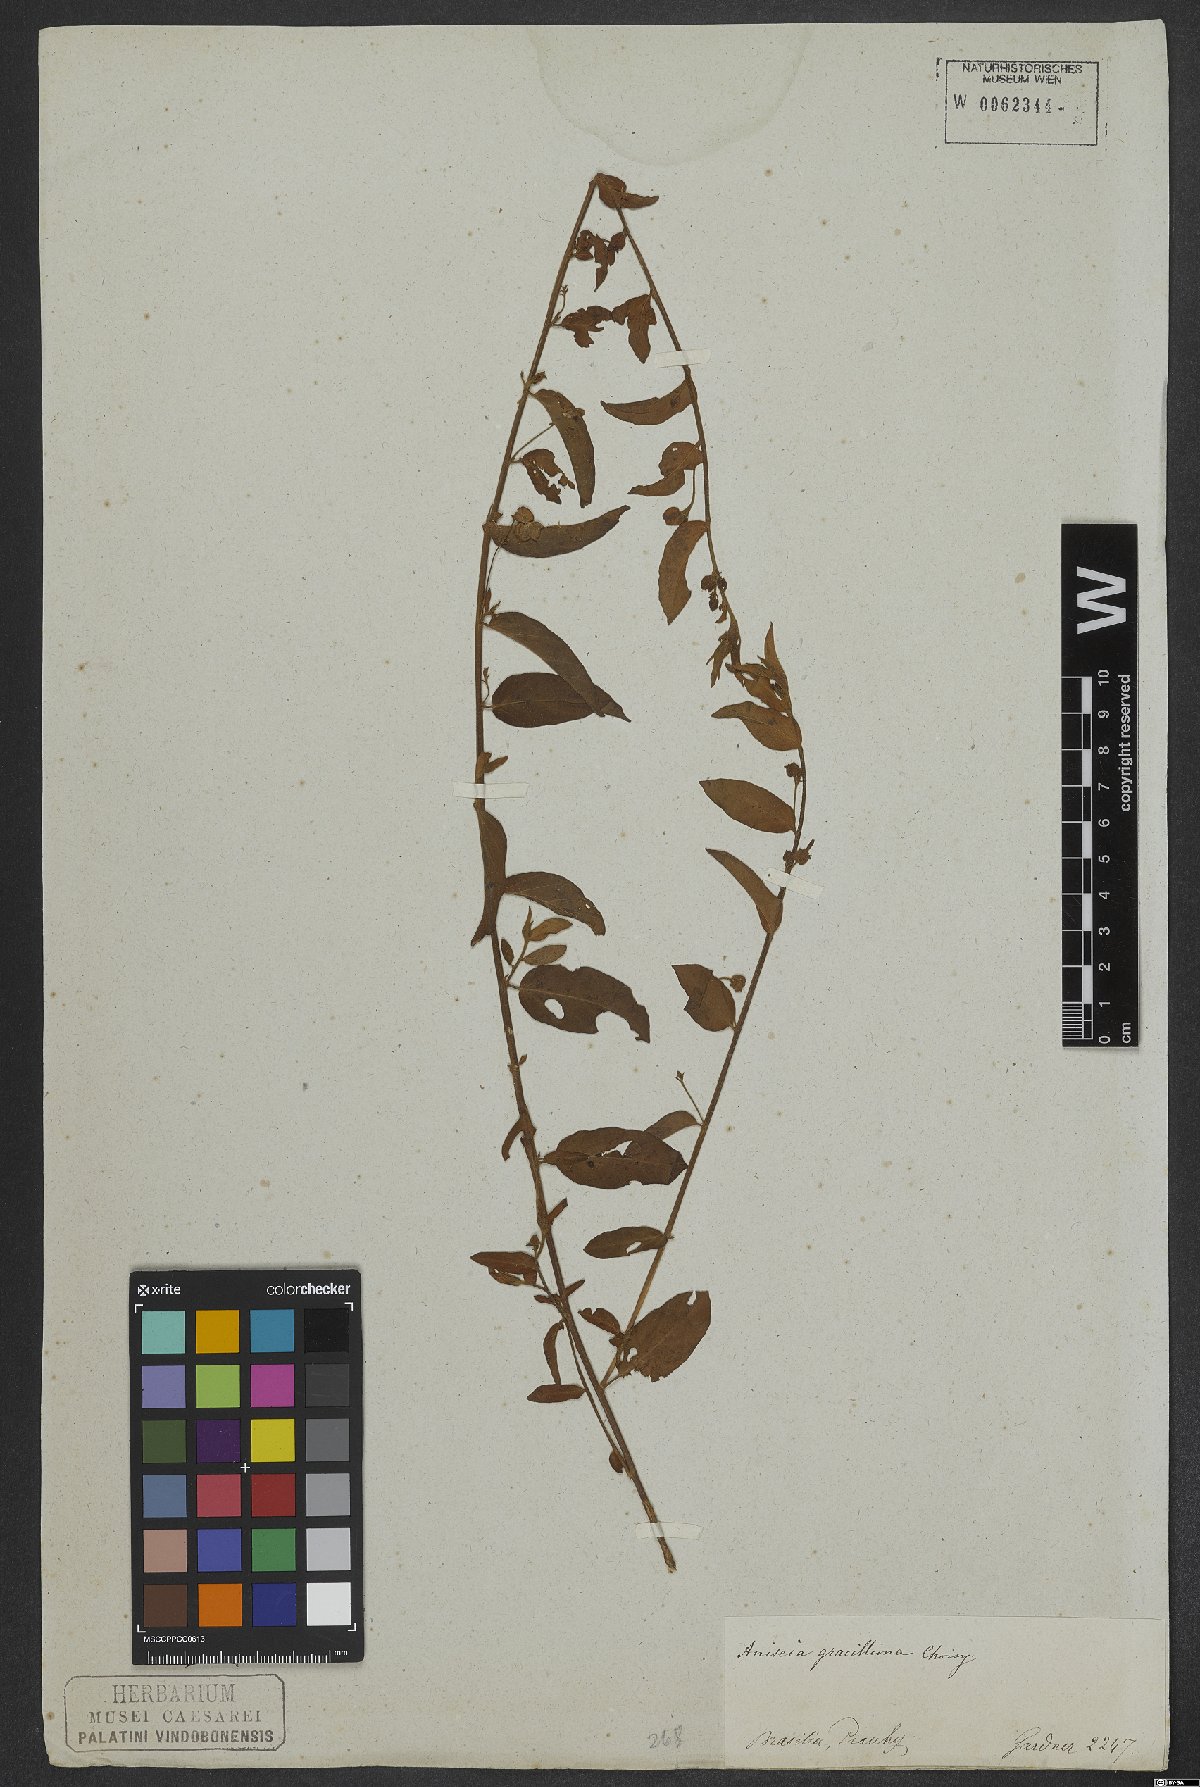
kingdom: Plantae
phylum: Tracheophyta
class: Magnoliopsida
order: Solanales
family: Convolvulaceae
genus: Jacquemontia
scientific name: Jacquemontia gracillima
